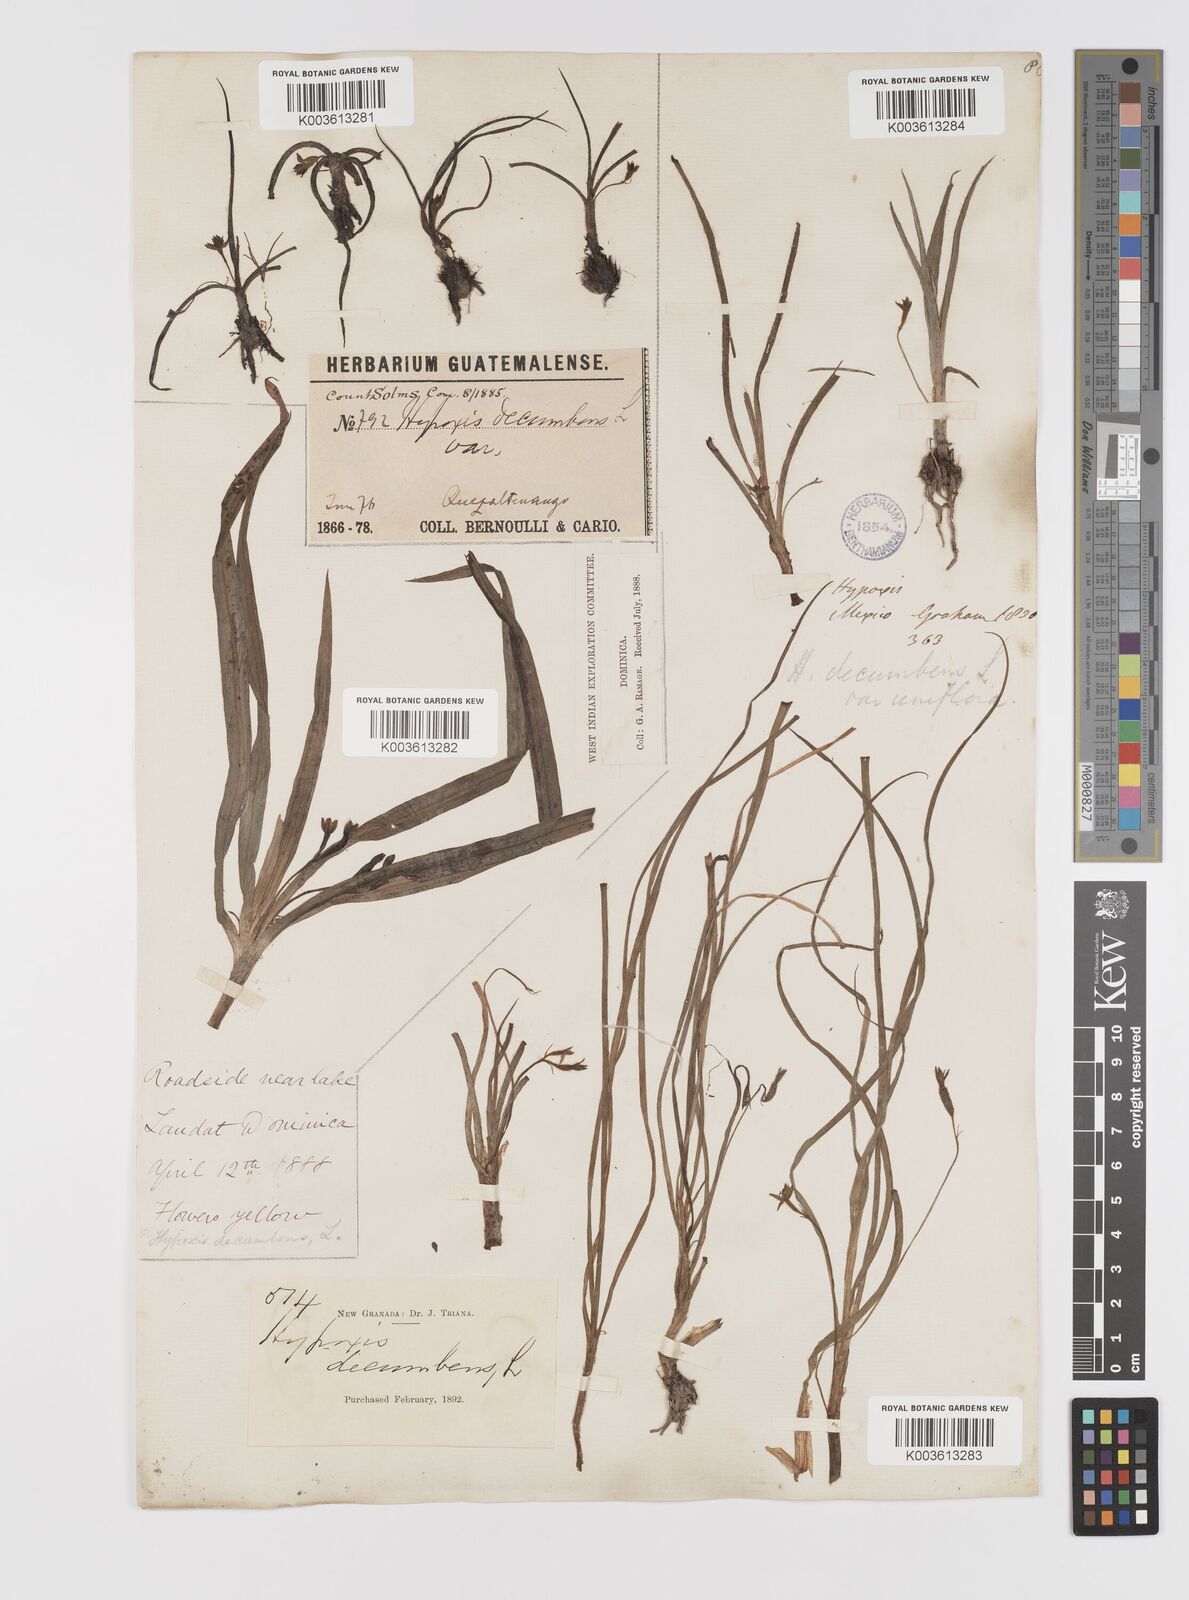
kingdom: Plantae
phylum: Tracheophyta
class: Liliopsida
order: Asparagales
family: Hypoxidaceae
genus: Hypoxis
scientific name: Hypoxis decumbens
